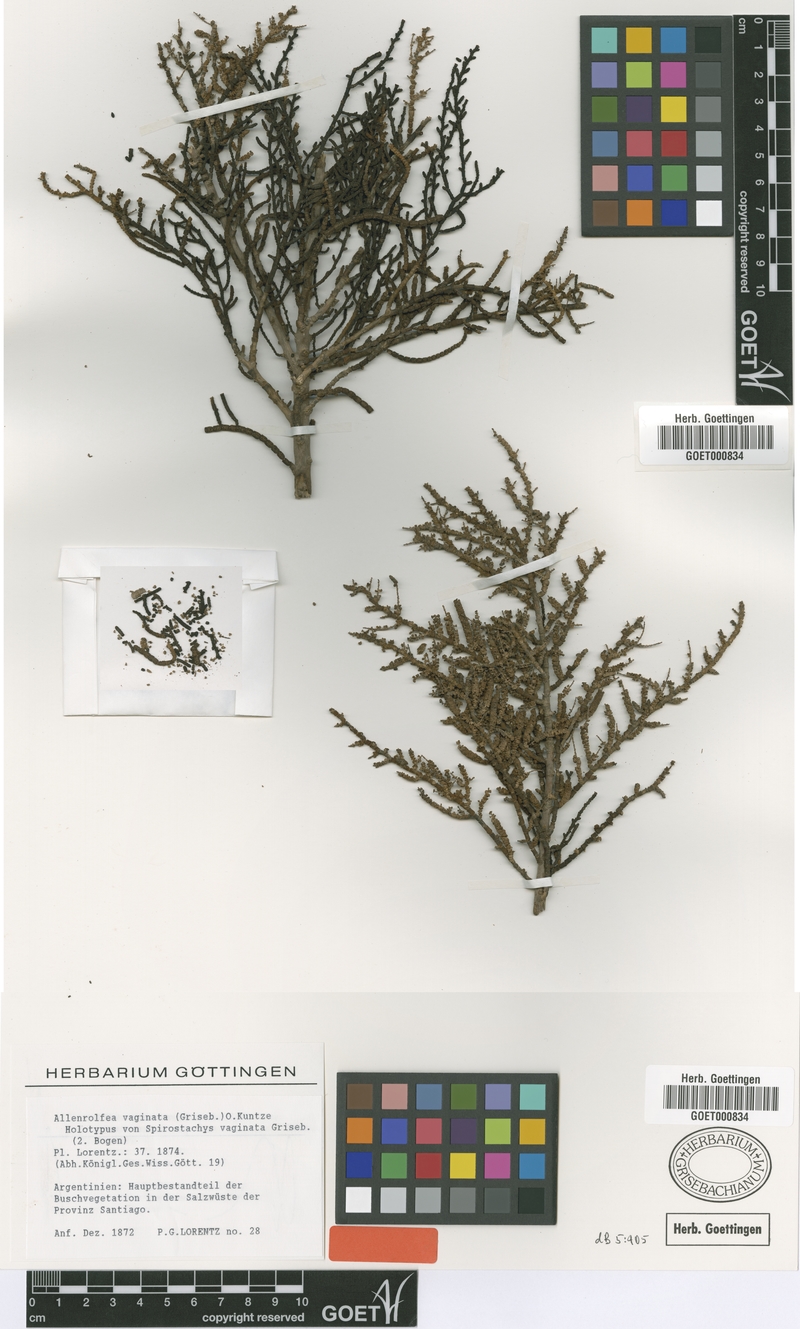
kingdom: Plantae
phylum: Tracheophyta
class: Magnoliopsida
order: Caryophyllales
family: Amaranthaceae
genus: Allenrolfea
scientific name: Allenrolfea vaginata
